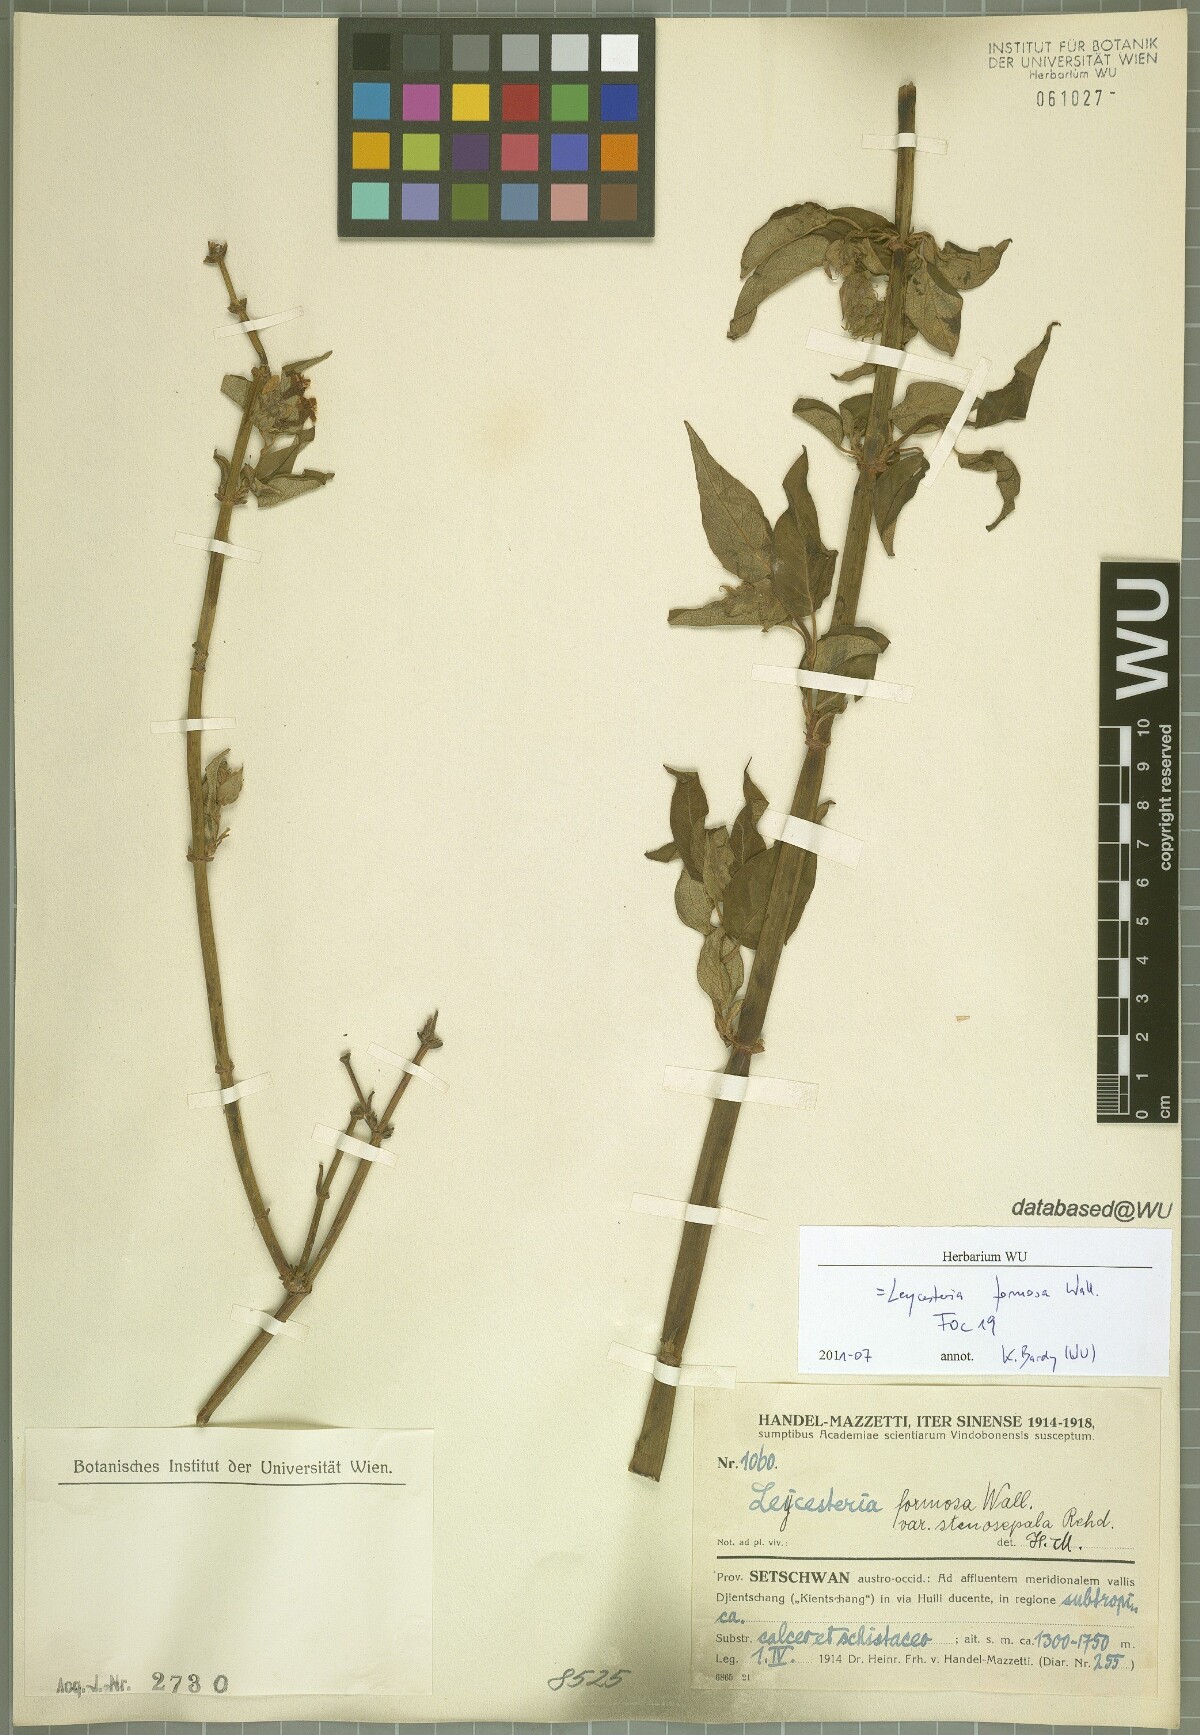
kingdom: Plantae
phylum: Tracheophyta
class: Magnoliopsida
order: Dipsacales
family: Caprifoliaceae
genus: Leycesteria
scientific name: Leycesteria formosa
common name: Himalayan honeysuckle
